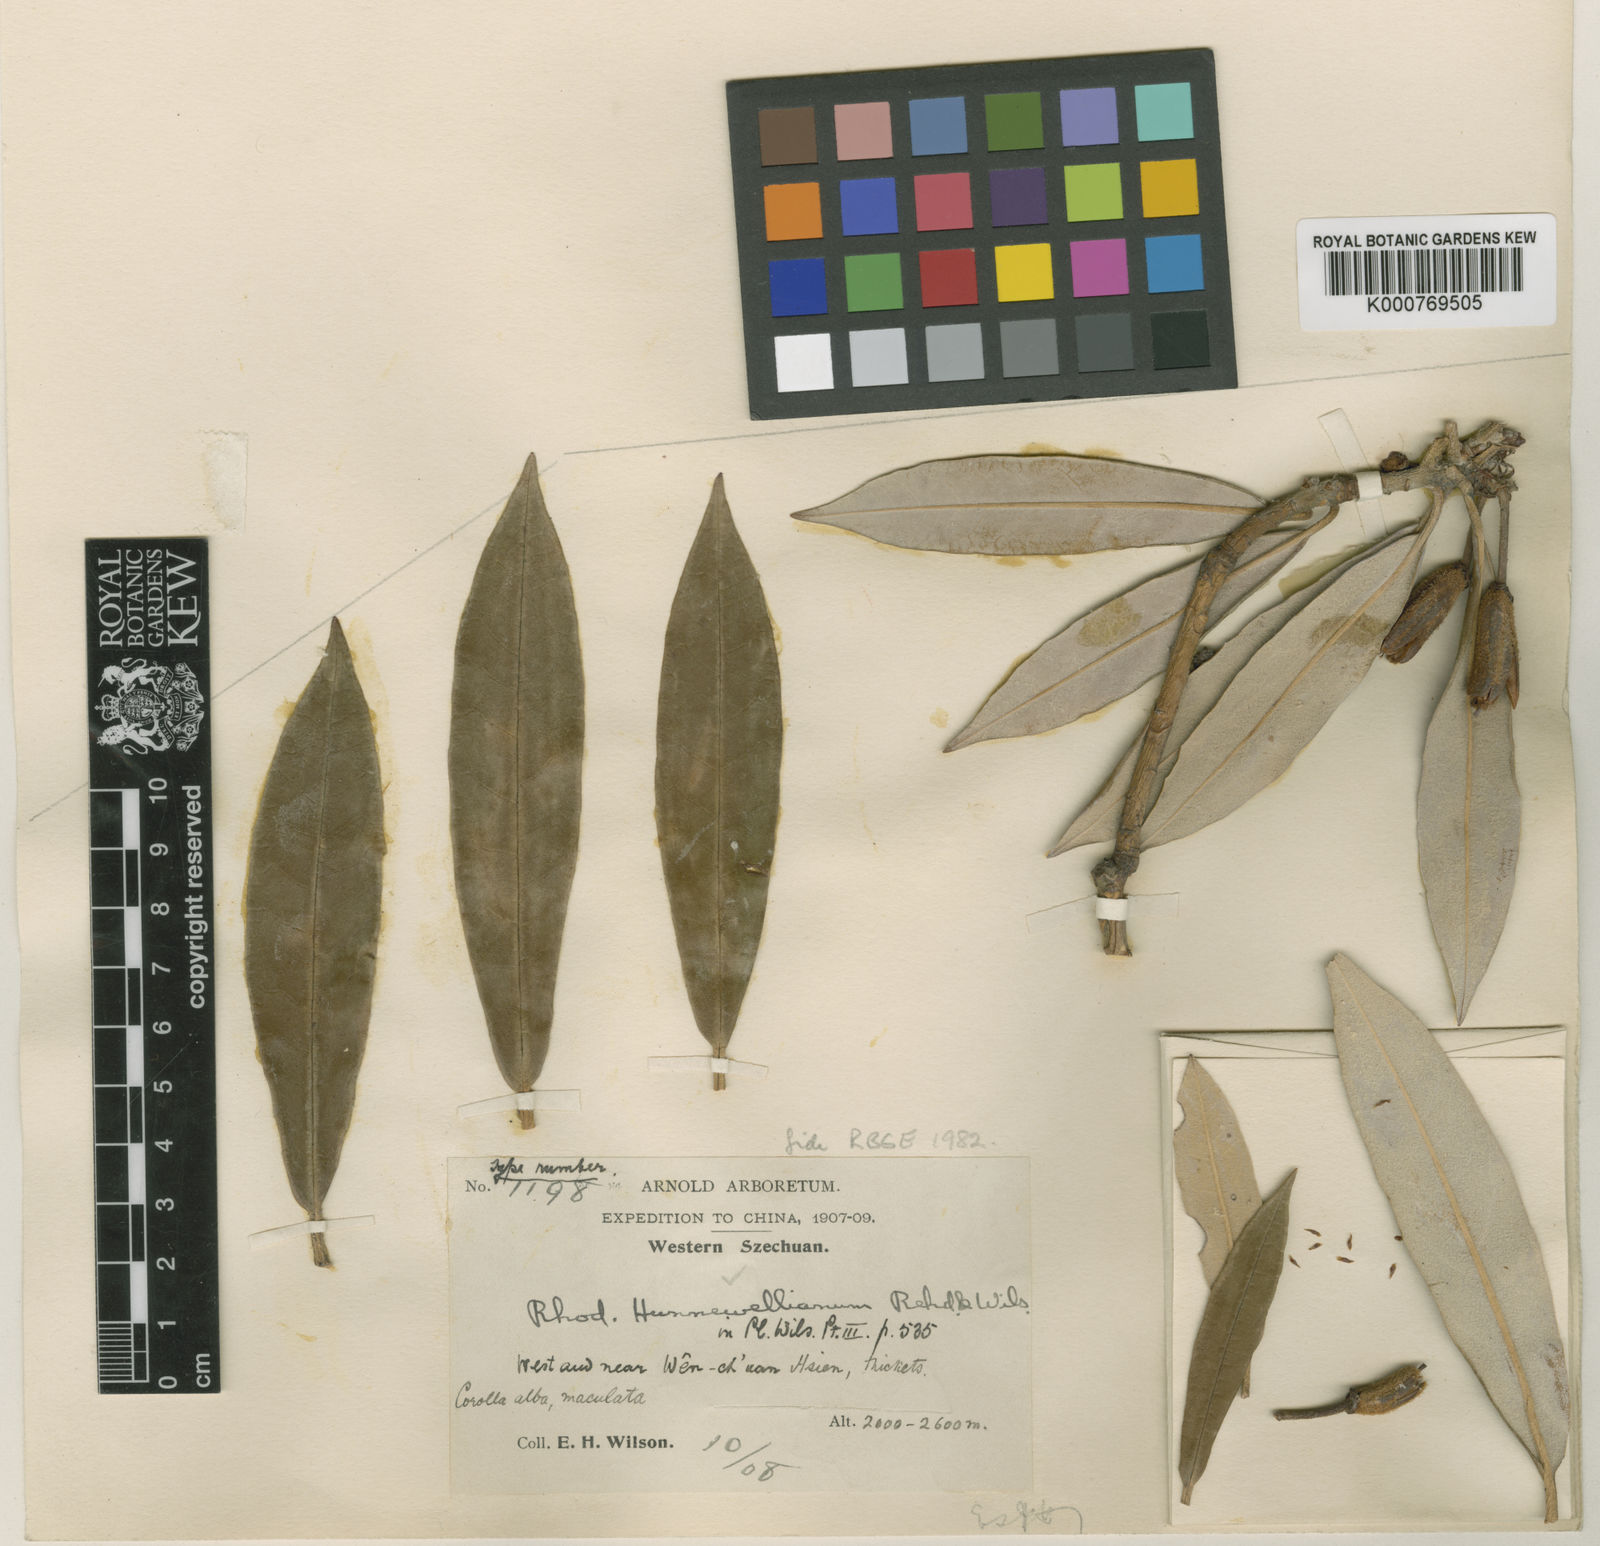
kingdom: Plantae
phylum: Tracheophyta
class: Magnoliopsida
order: Ericales
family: Ericaceae
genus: Rhododendron
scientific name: Rhododendron hunnewellianum
